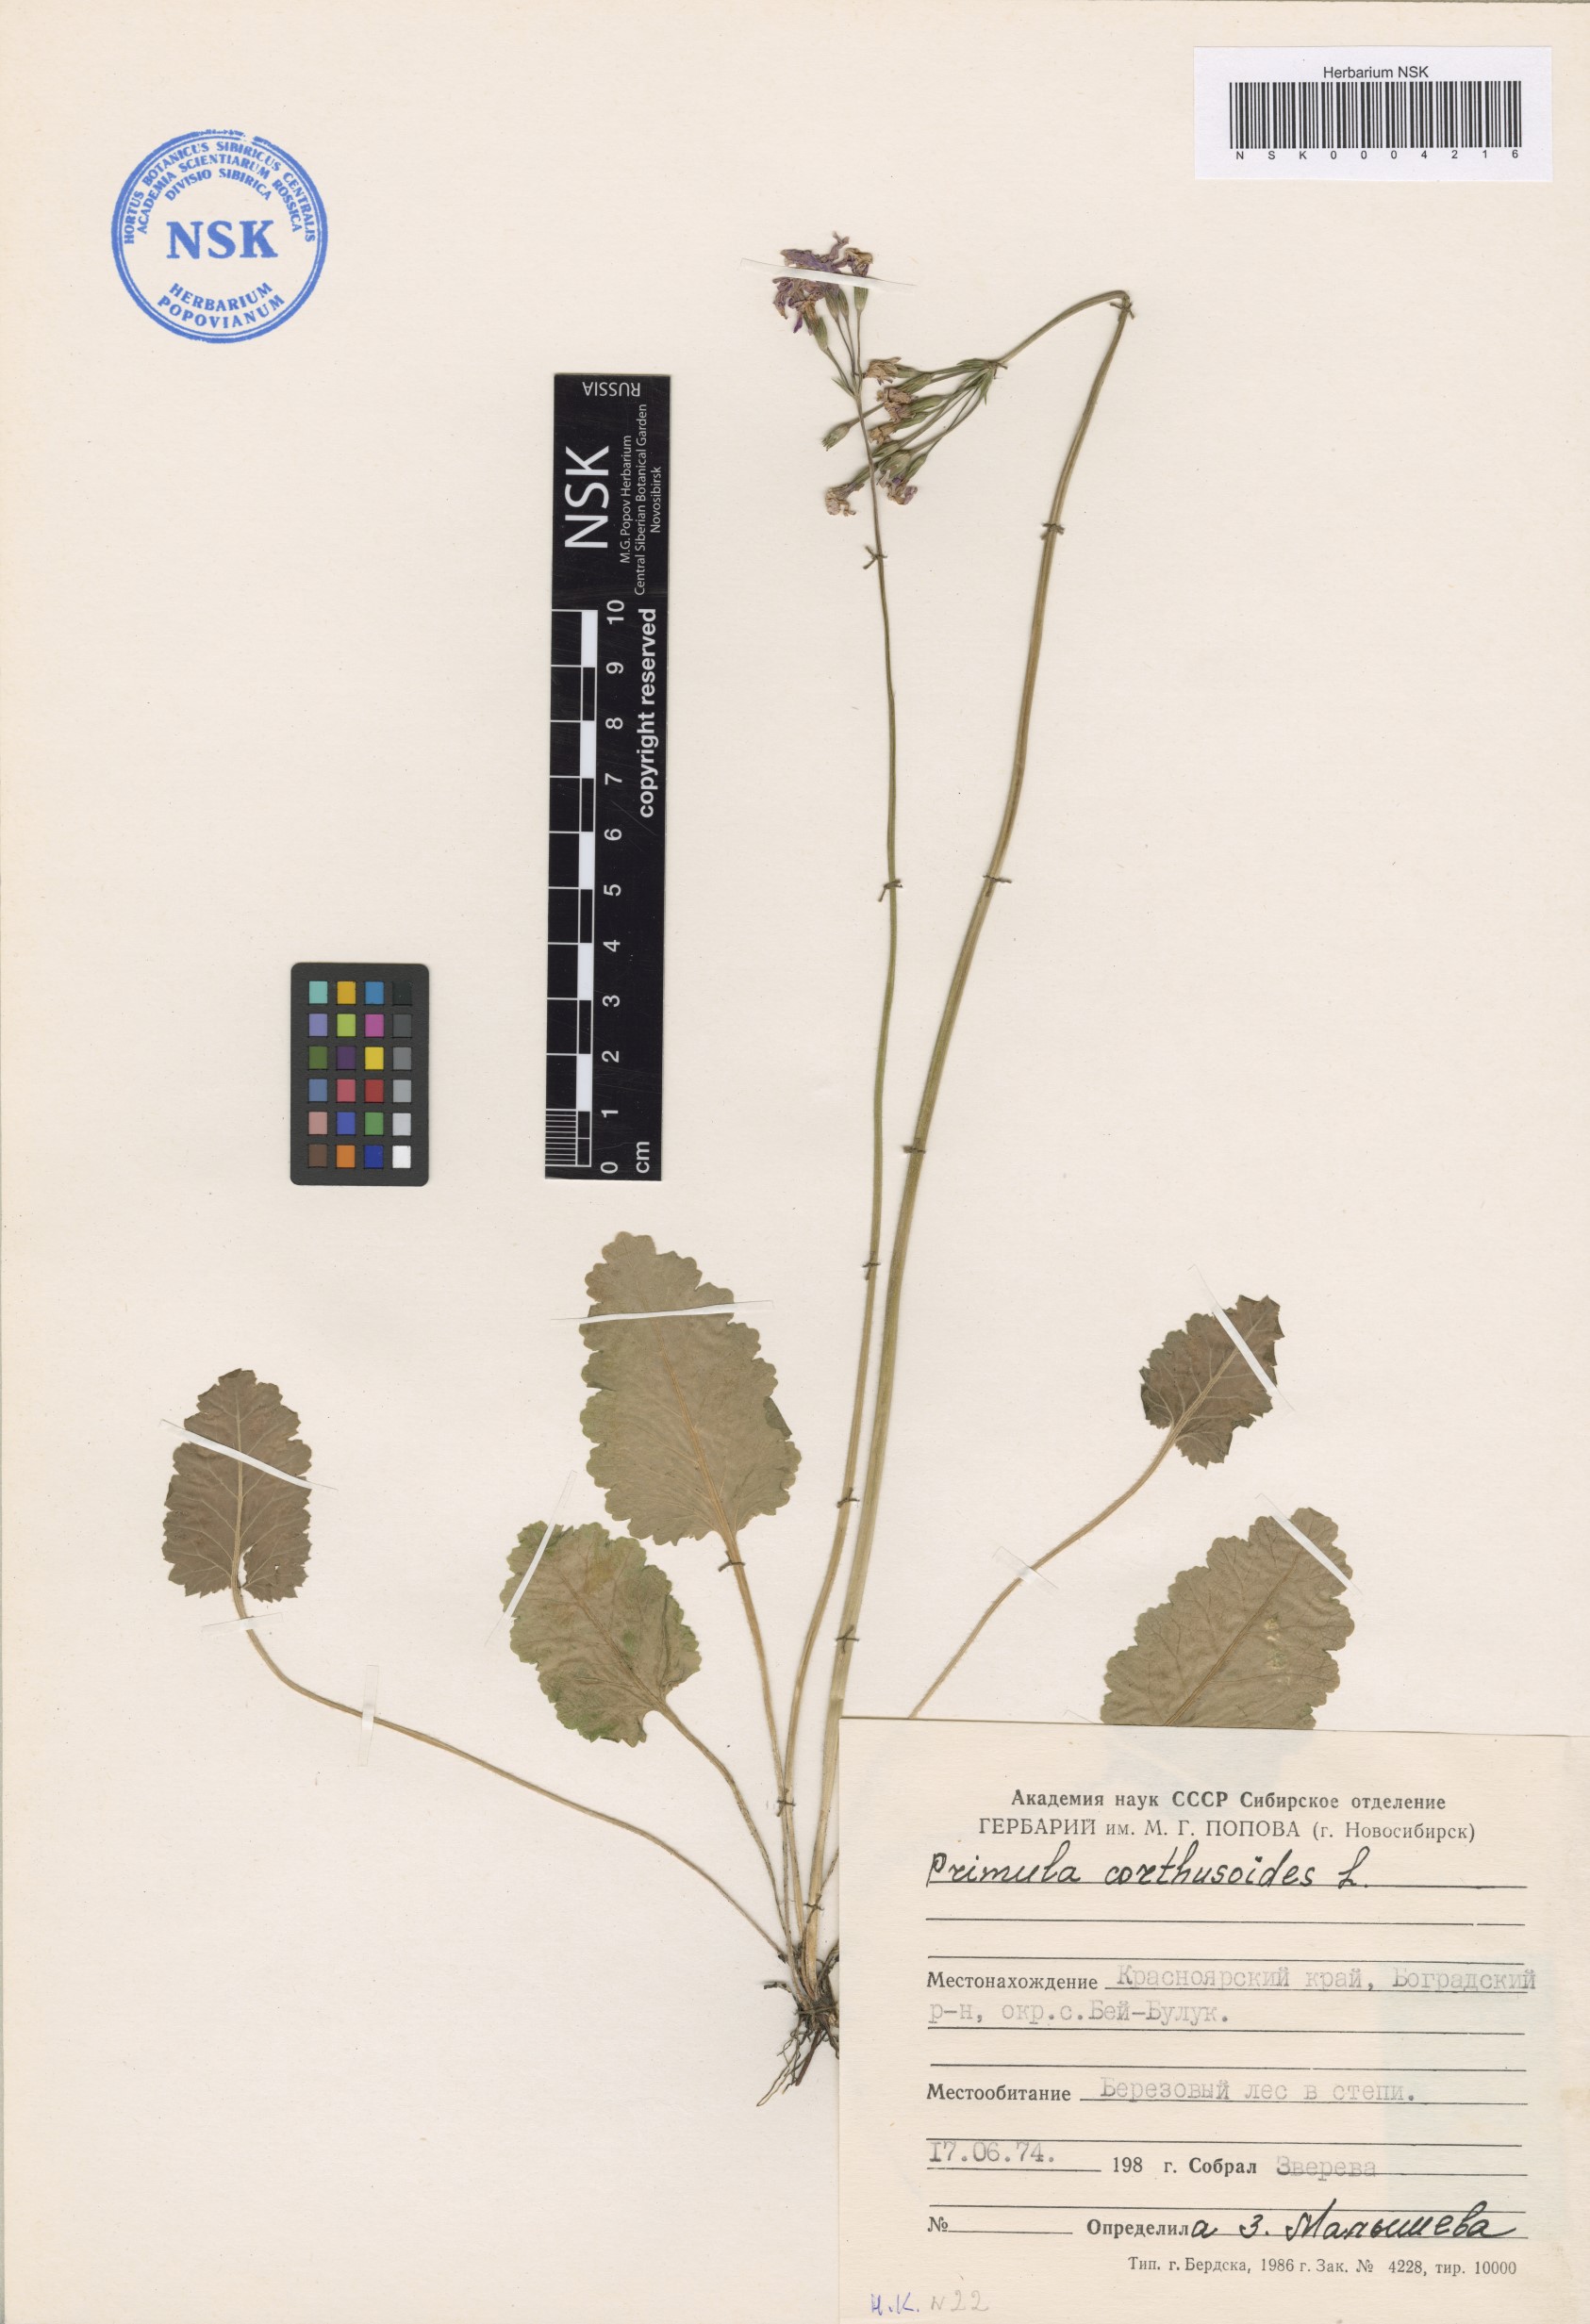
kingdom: Plantae
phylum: Tracheophyta
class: Magnoliopsida
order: Ericales
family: Primulaceae
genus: Primula
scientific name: Primula cortusoides
